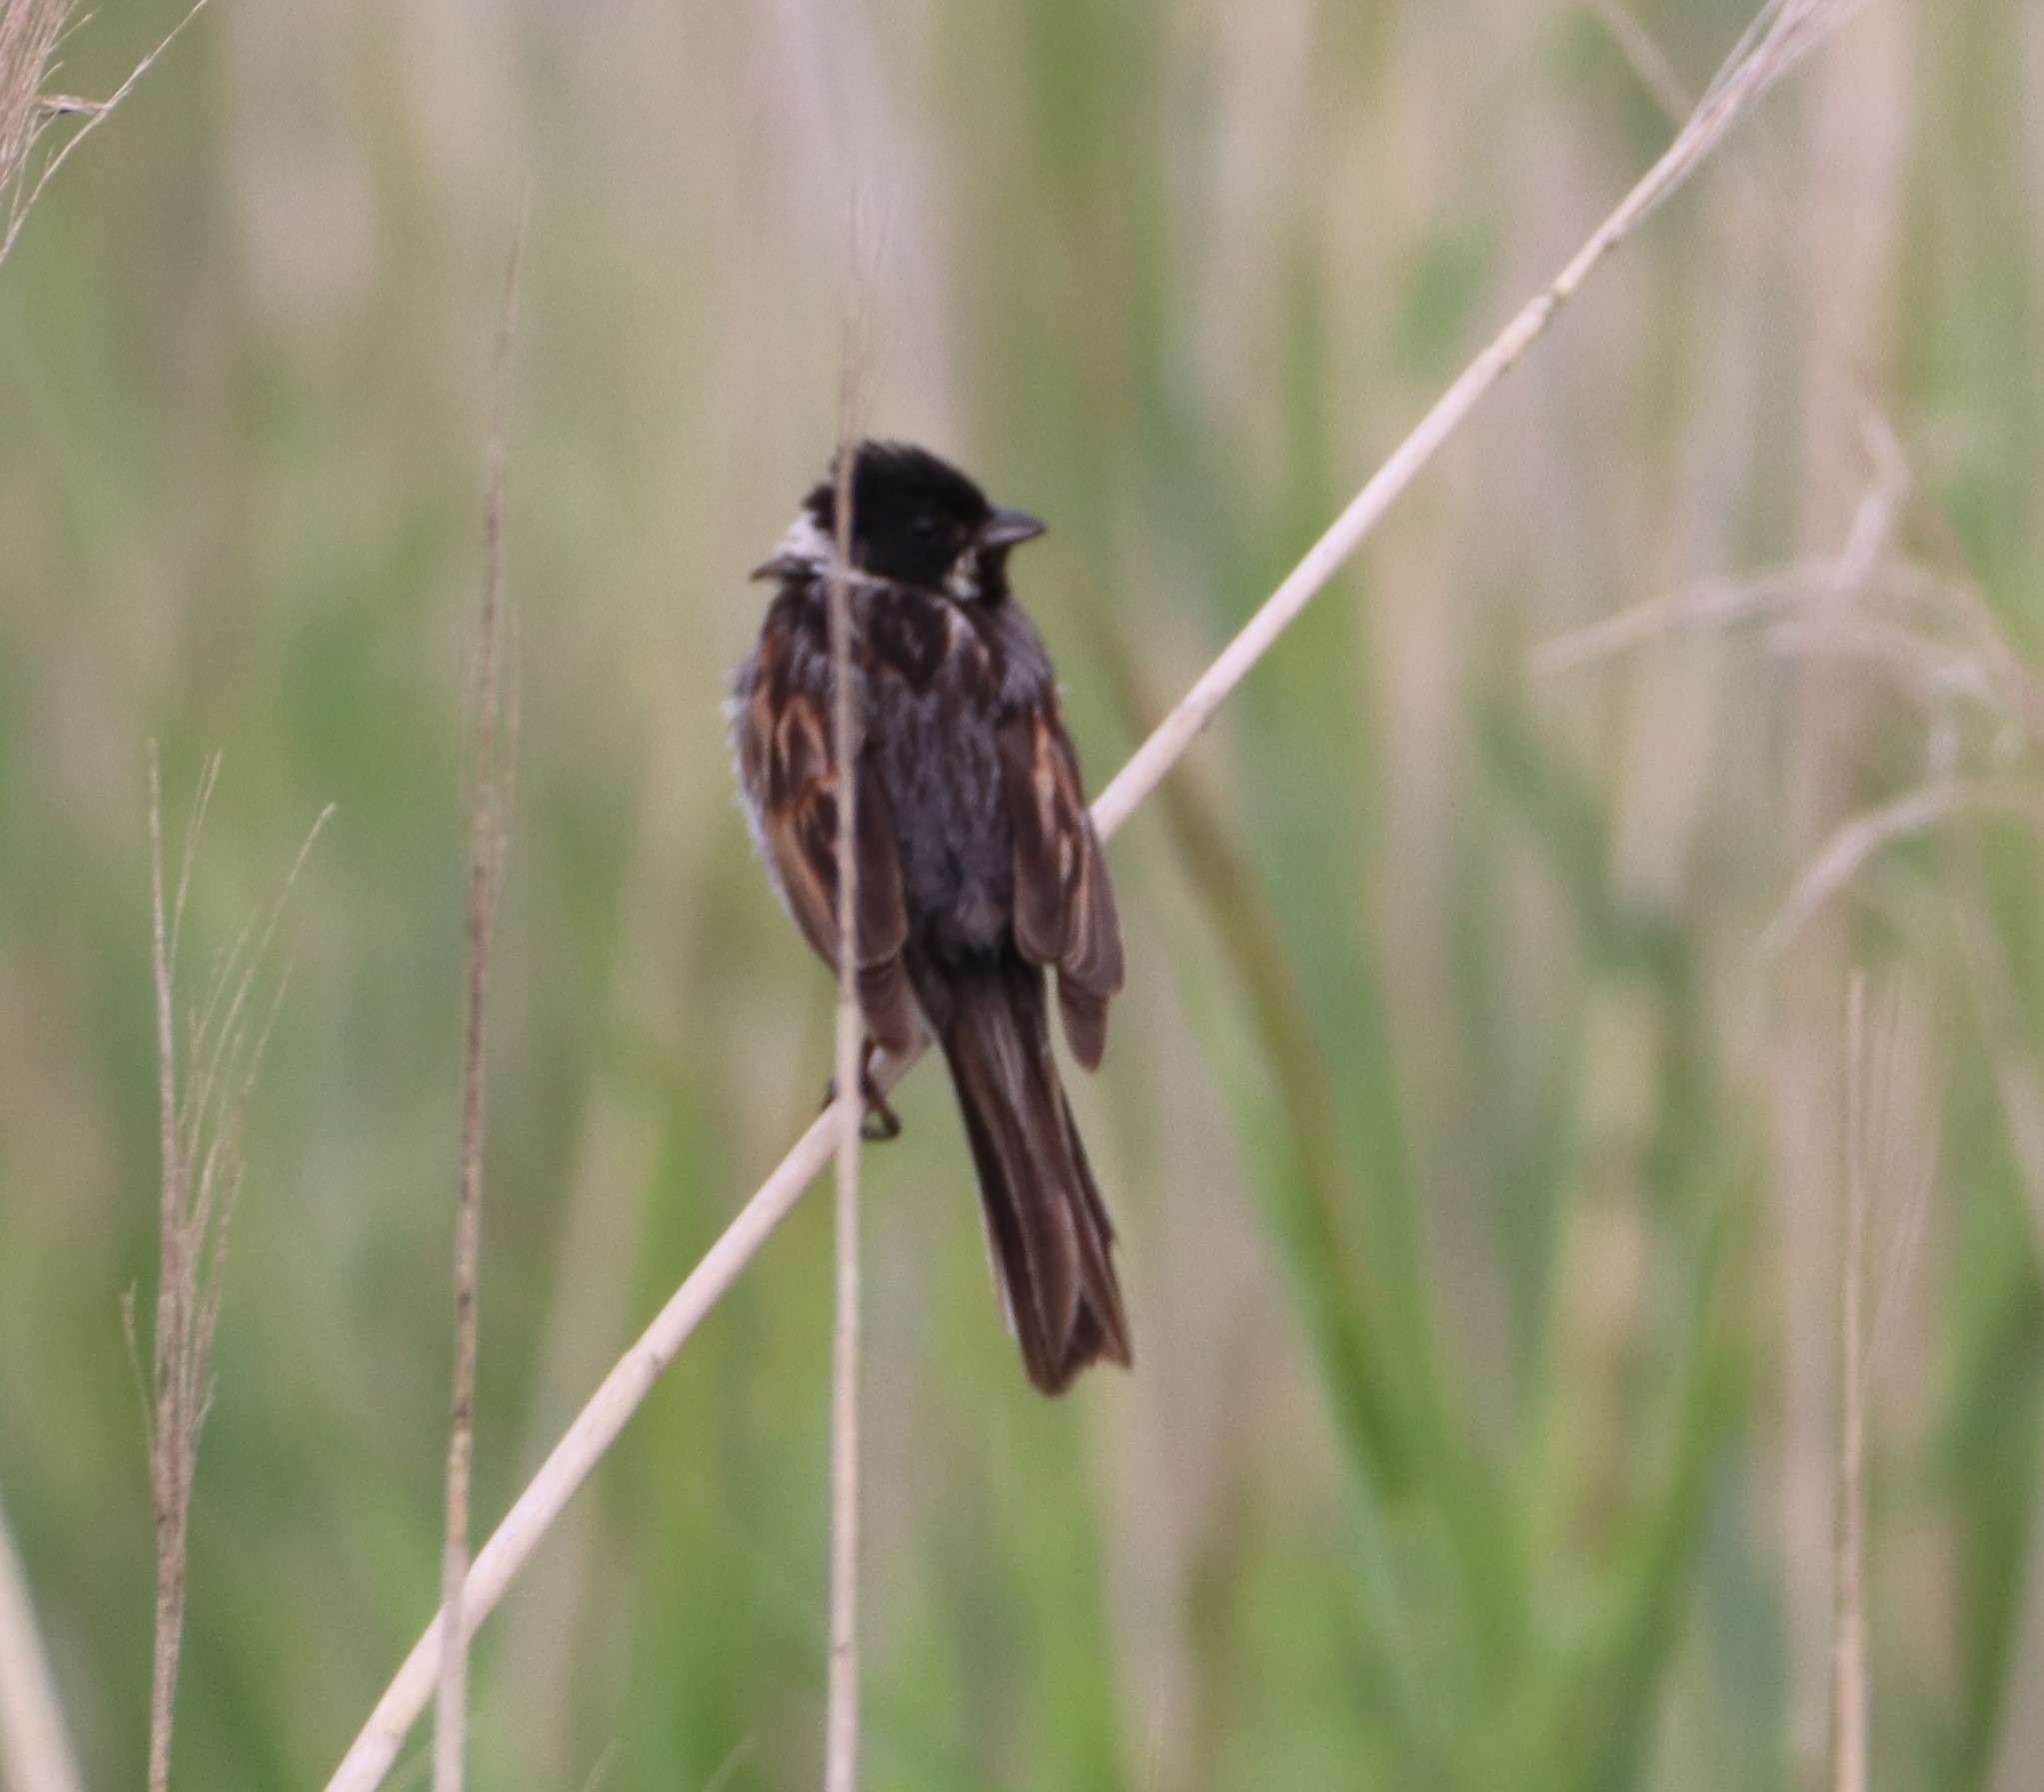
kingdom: Animalia
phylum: Chordata
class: Aves
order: Passeriformes
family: Emberizidae
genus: Emberiza
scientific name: Emberiza schoeniclus
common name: Rørspurv
